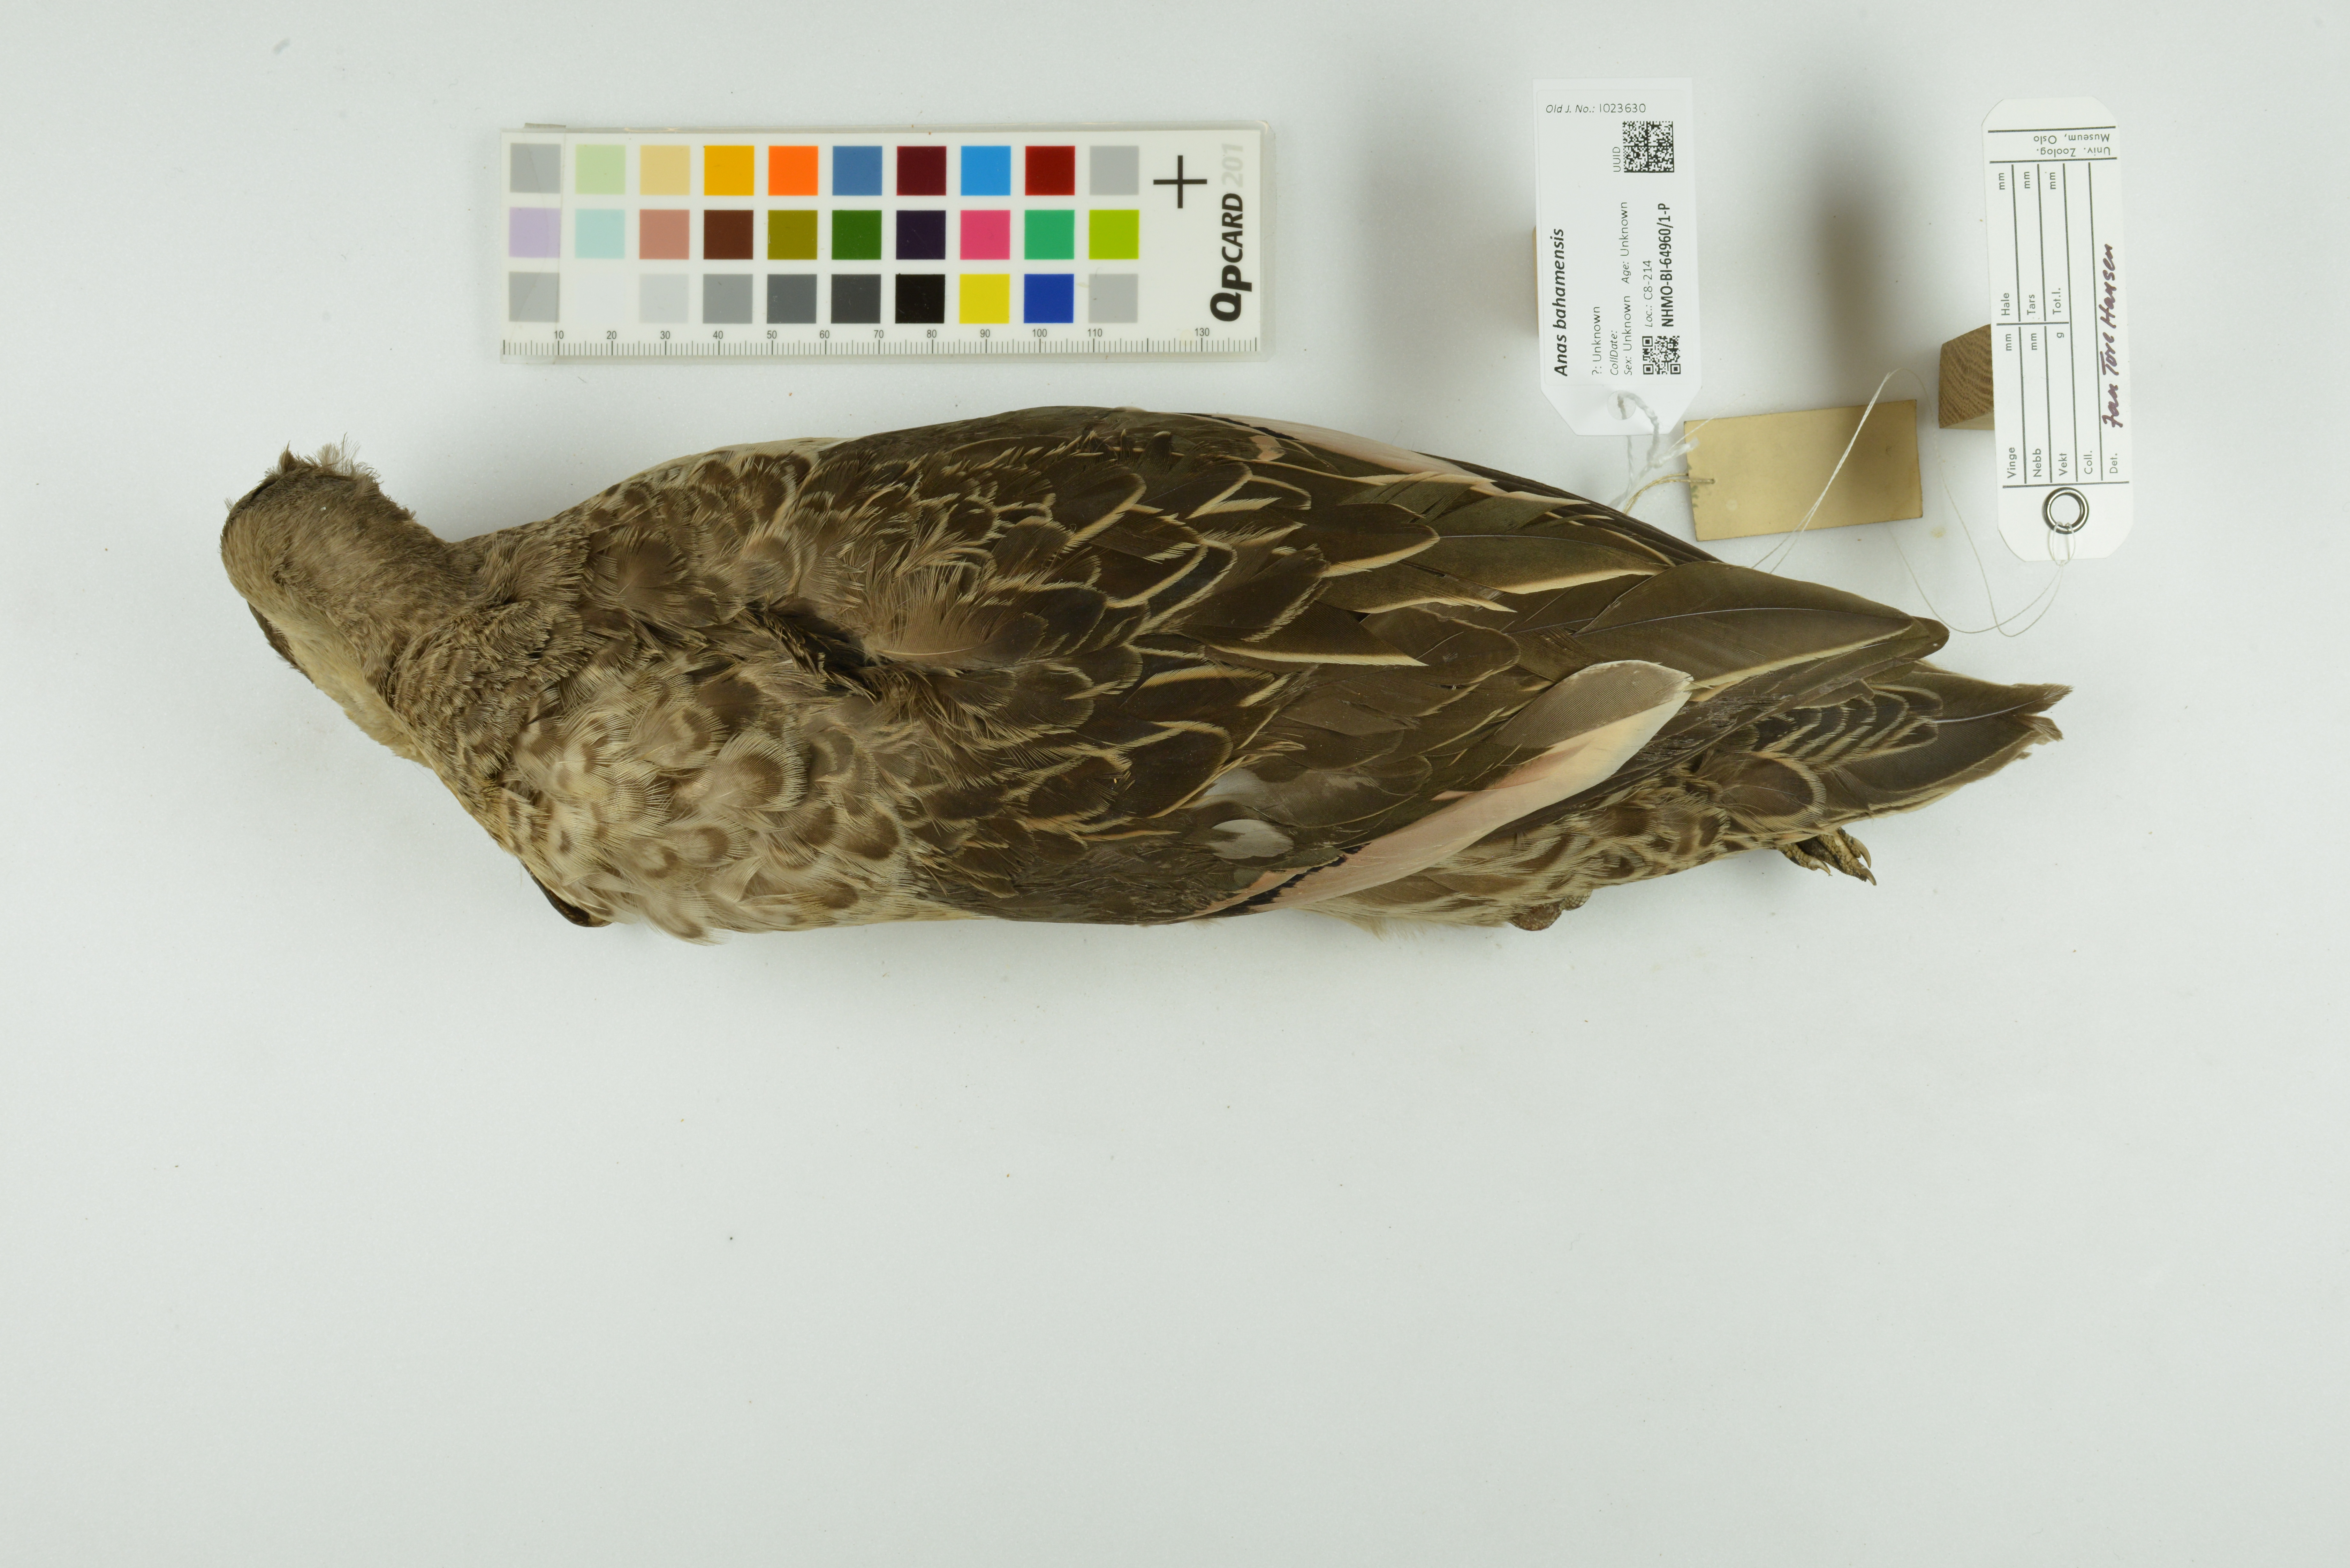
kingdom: Animalia
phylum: Chordata
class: Aves
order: Anseriformes
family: Anatidae
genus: Anas
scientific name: Anas bahamensis
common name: White-cheeked pintail
